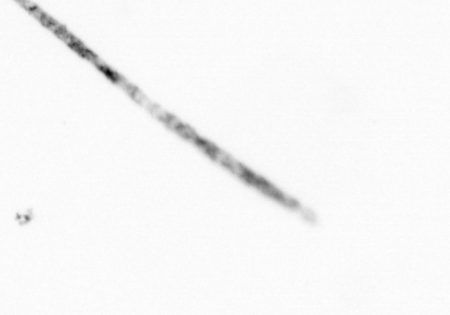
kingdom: Chromista
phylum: Ochrophyta
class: Bacillariophyceae
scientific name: Bacillariophyceae
